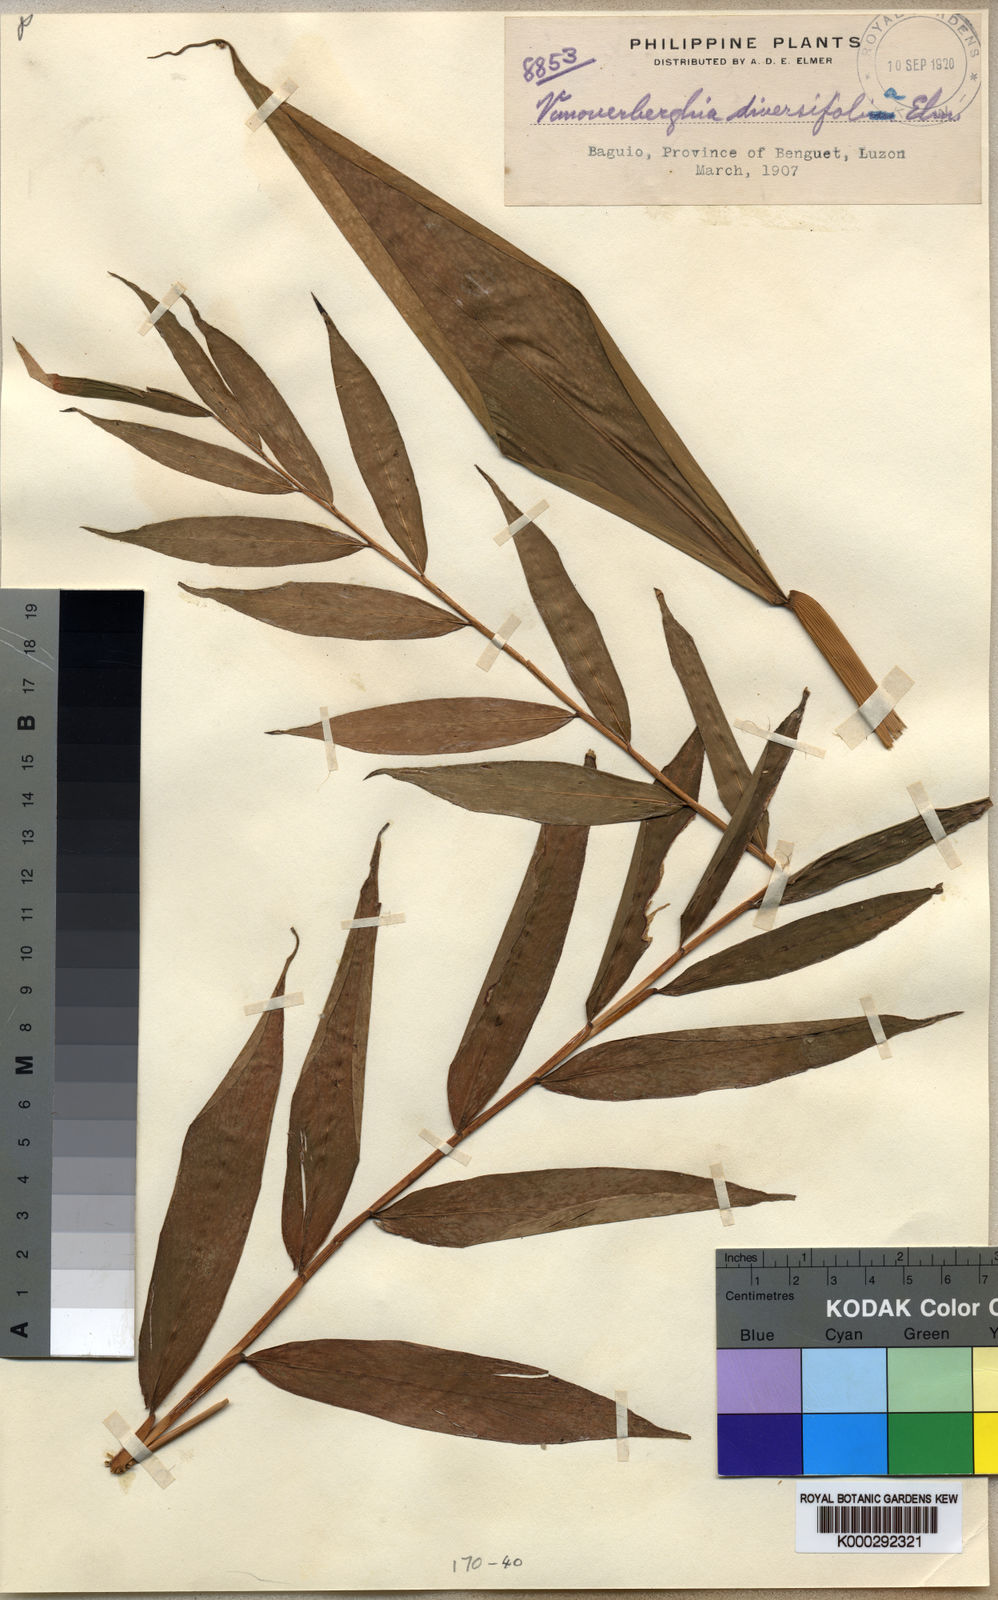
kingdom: Plantae
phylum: Tracheophyta
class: Liliopsida
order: Zingiberales
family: Zingiberaceae
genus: Alpinia
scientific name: Alpinia diversifolia
